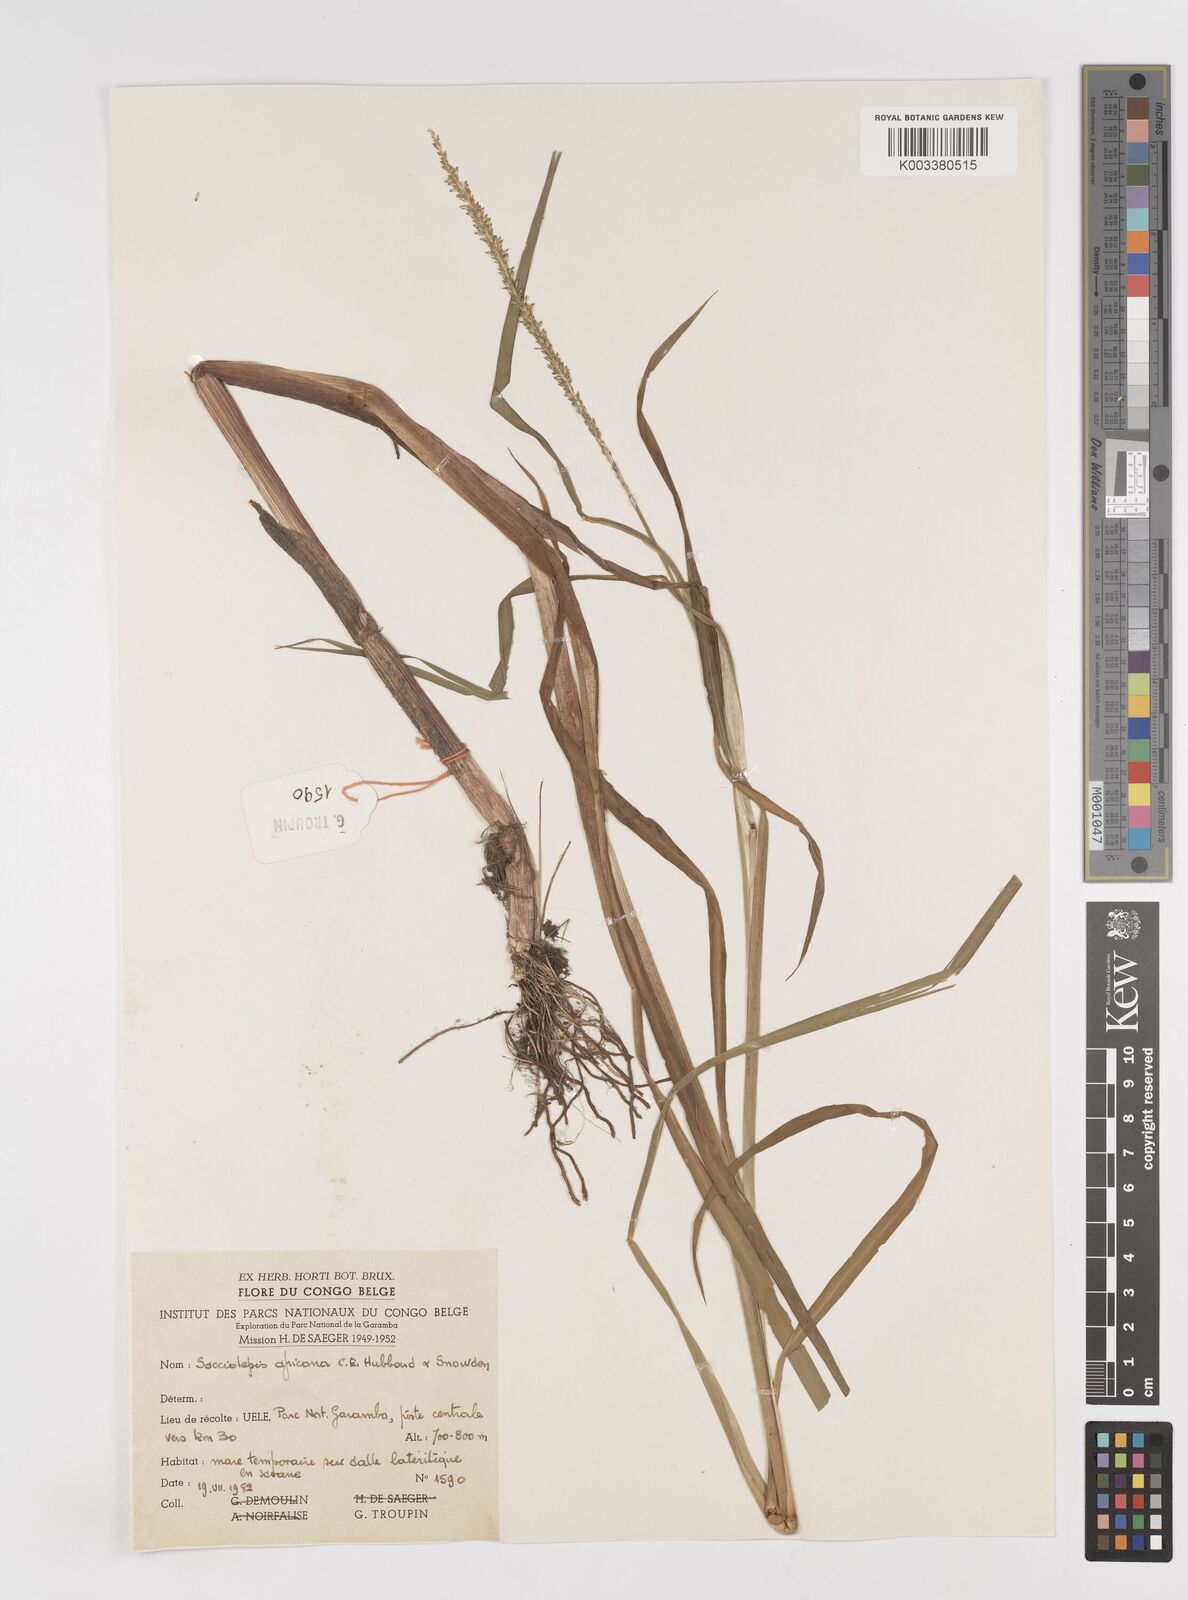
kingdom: Plantae
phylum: Tracheophyta
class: Liliopsida
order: Poales
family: Poaceae
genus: Sacciolepis
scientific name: Sacciolepis africana
